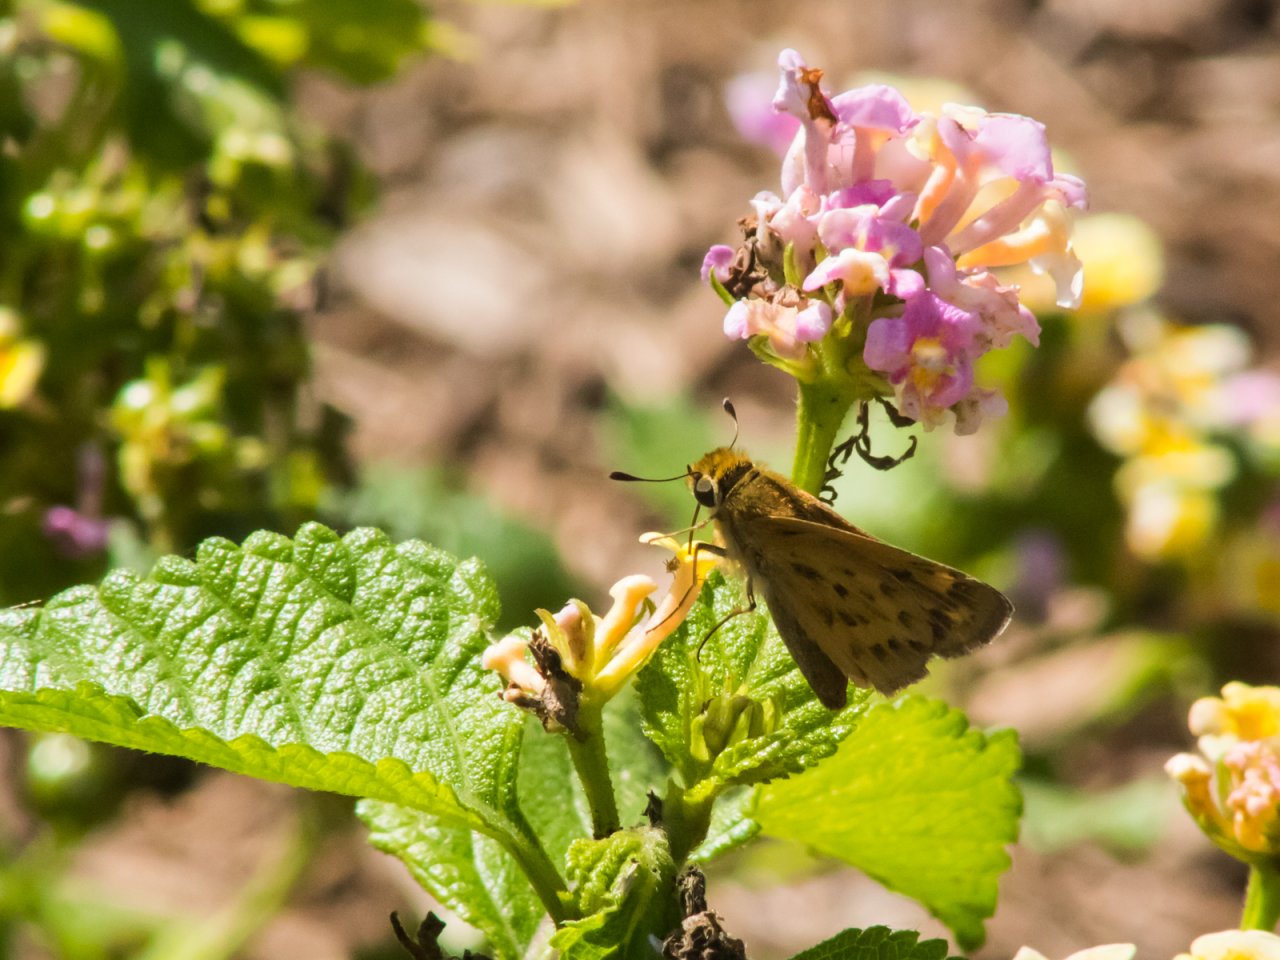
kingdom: Animalia
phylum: Arthropoda
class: Insecta
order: Lepidoptera
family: Hesperiidae
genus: Hylephila
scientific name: Hylephila phyleus
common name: Fiery Skipper
